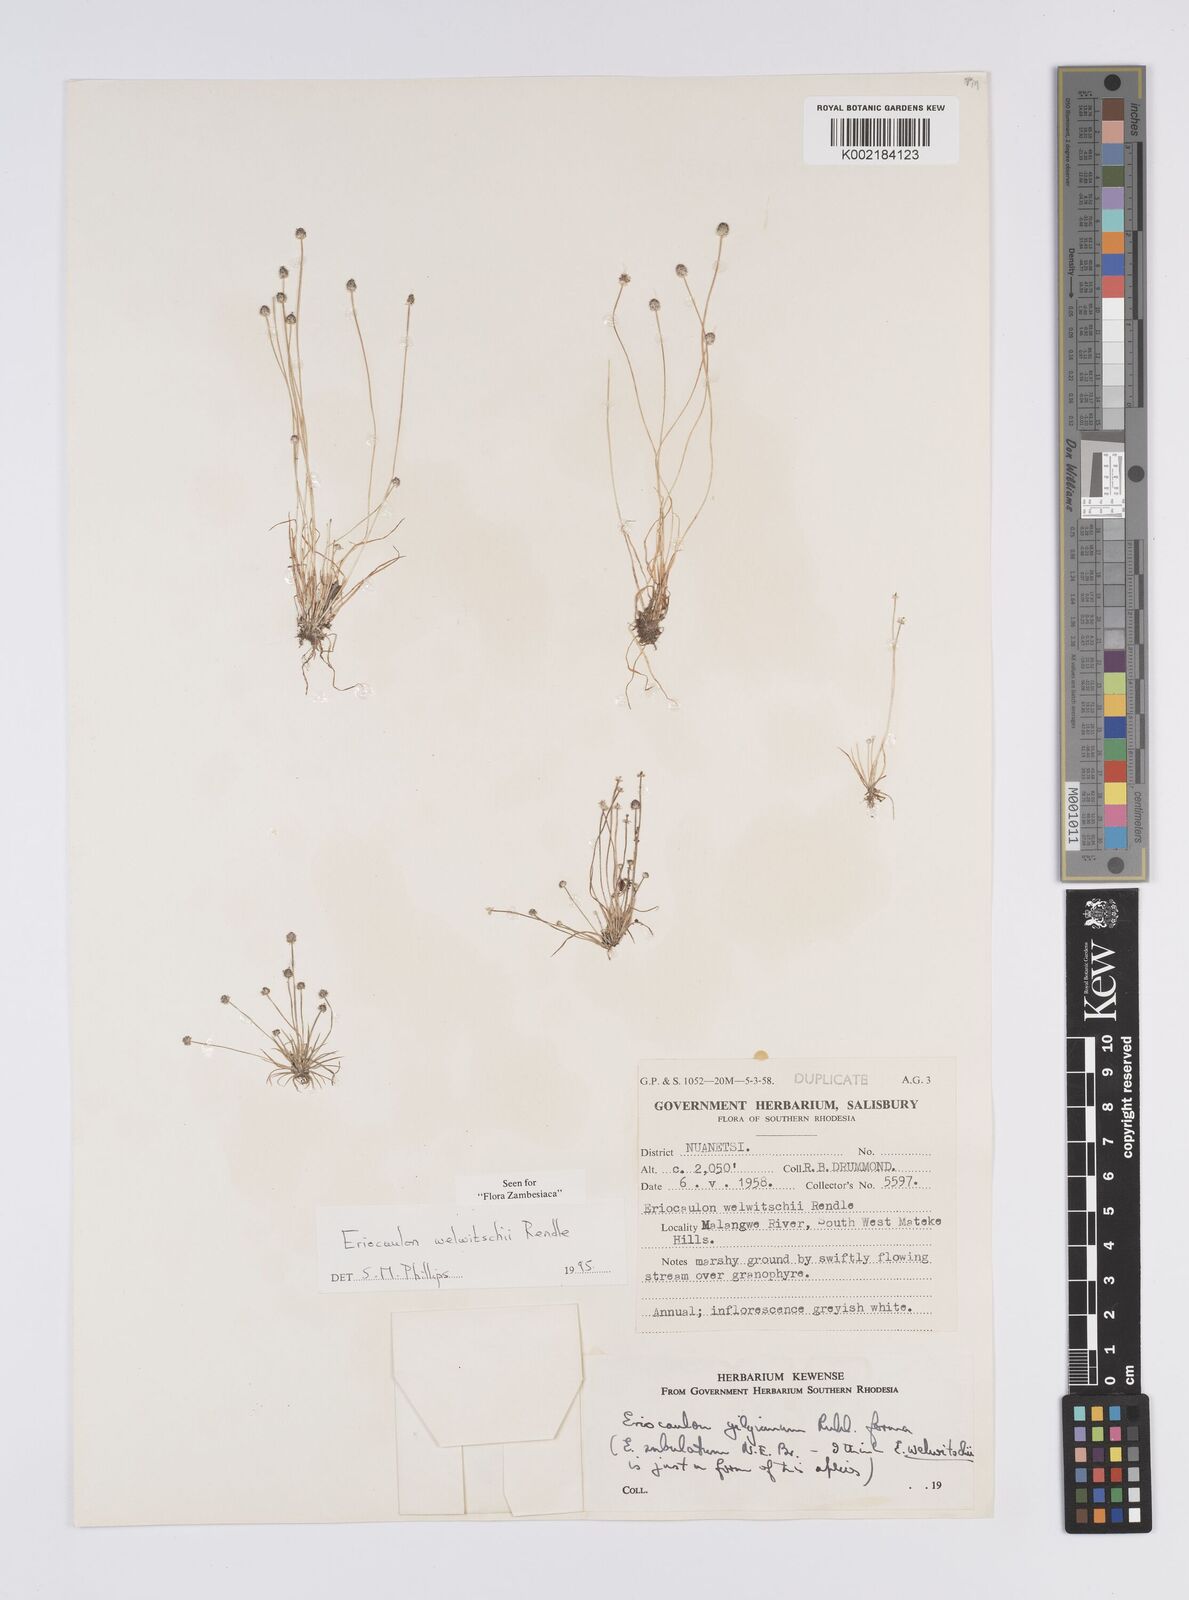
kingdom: Plantae
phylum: Tracheophyta
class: Liliopsida
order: Poales
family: Eriocaulaceae
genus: Eriocaulon
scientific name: Eriocaulon welwitschii
